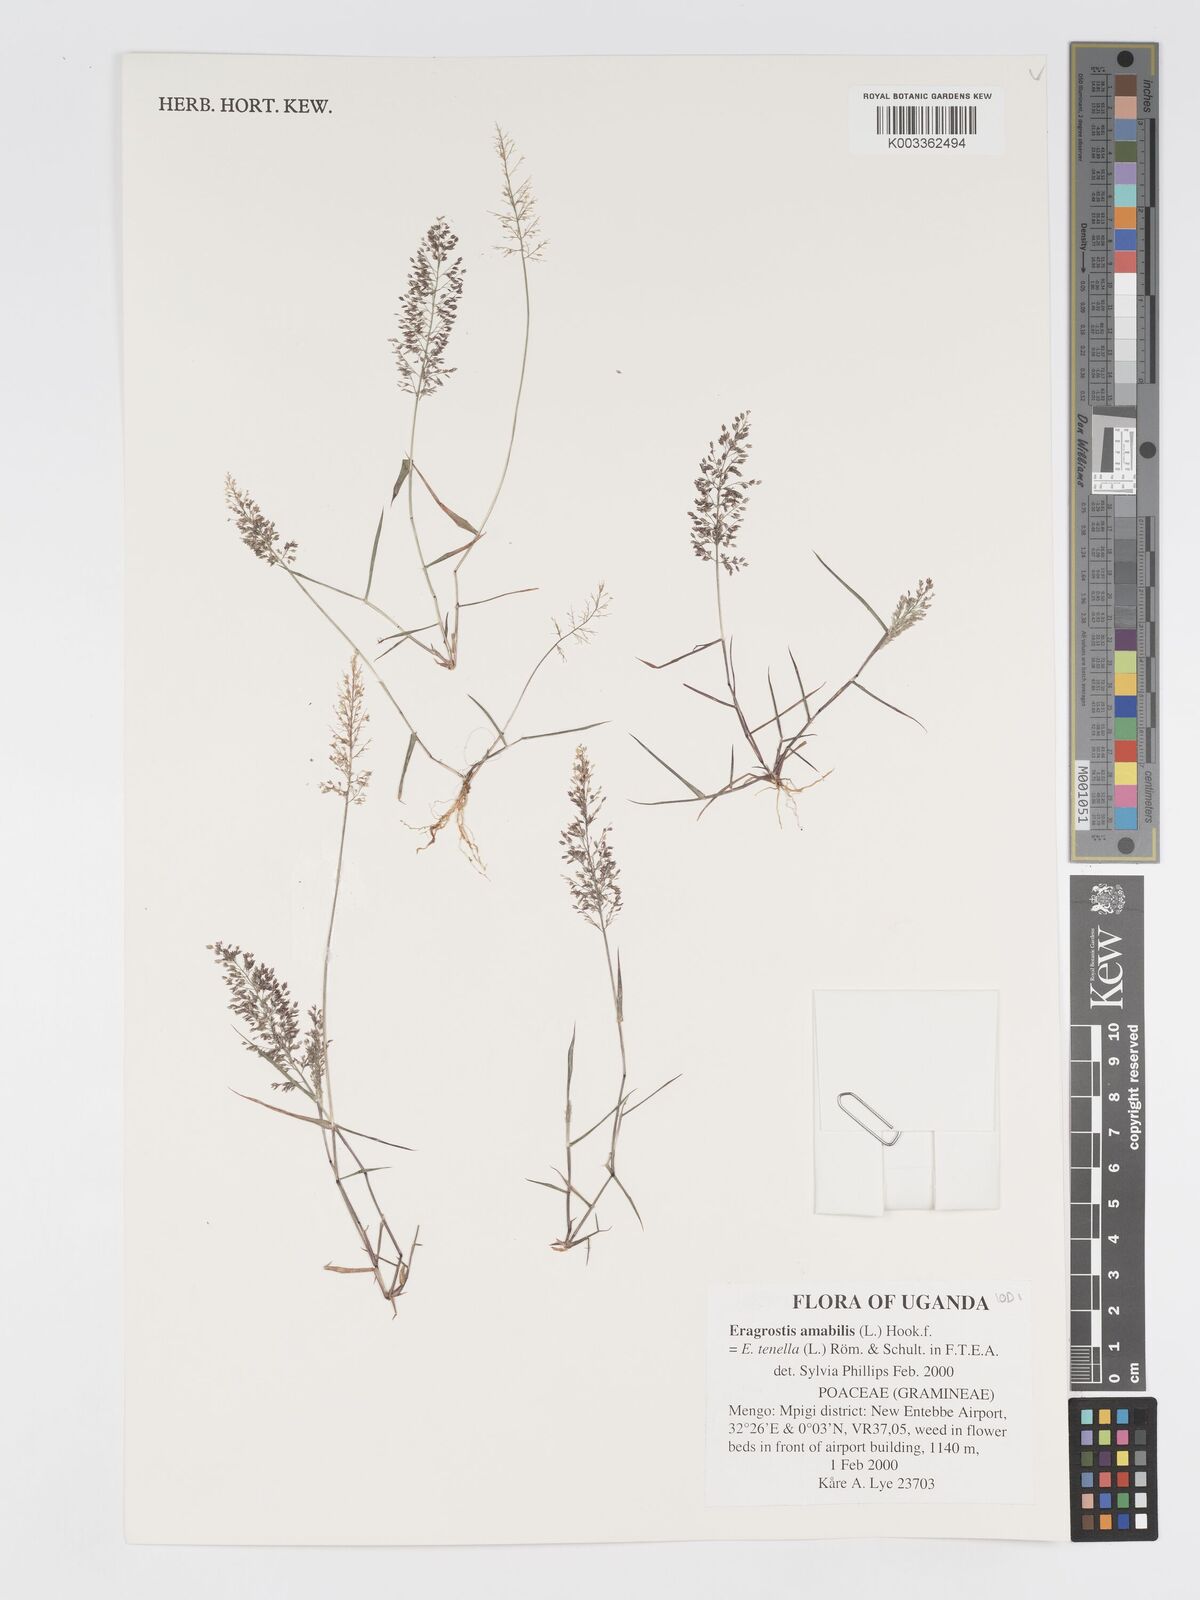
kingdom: Plantae
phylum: Tracheophyta
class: Liliopsida
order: Poales
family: Poaceae
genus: Eragrostis
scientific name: Eragrostis tenella
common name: Japanese lovegrass
